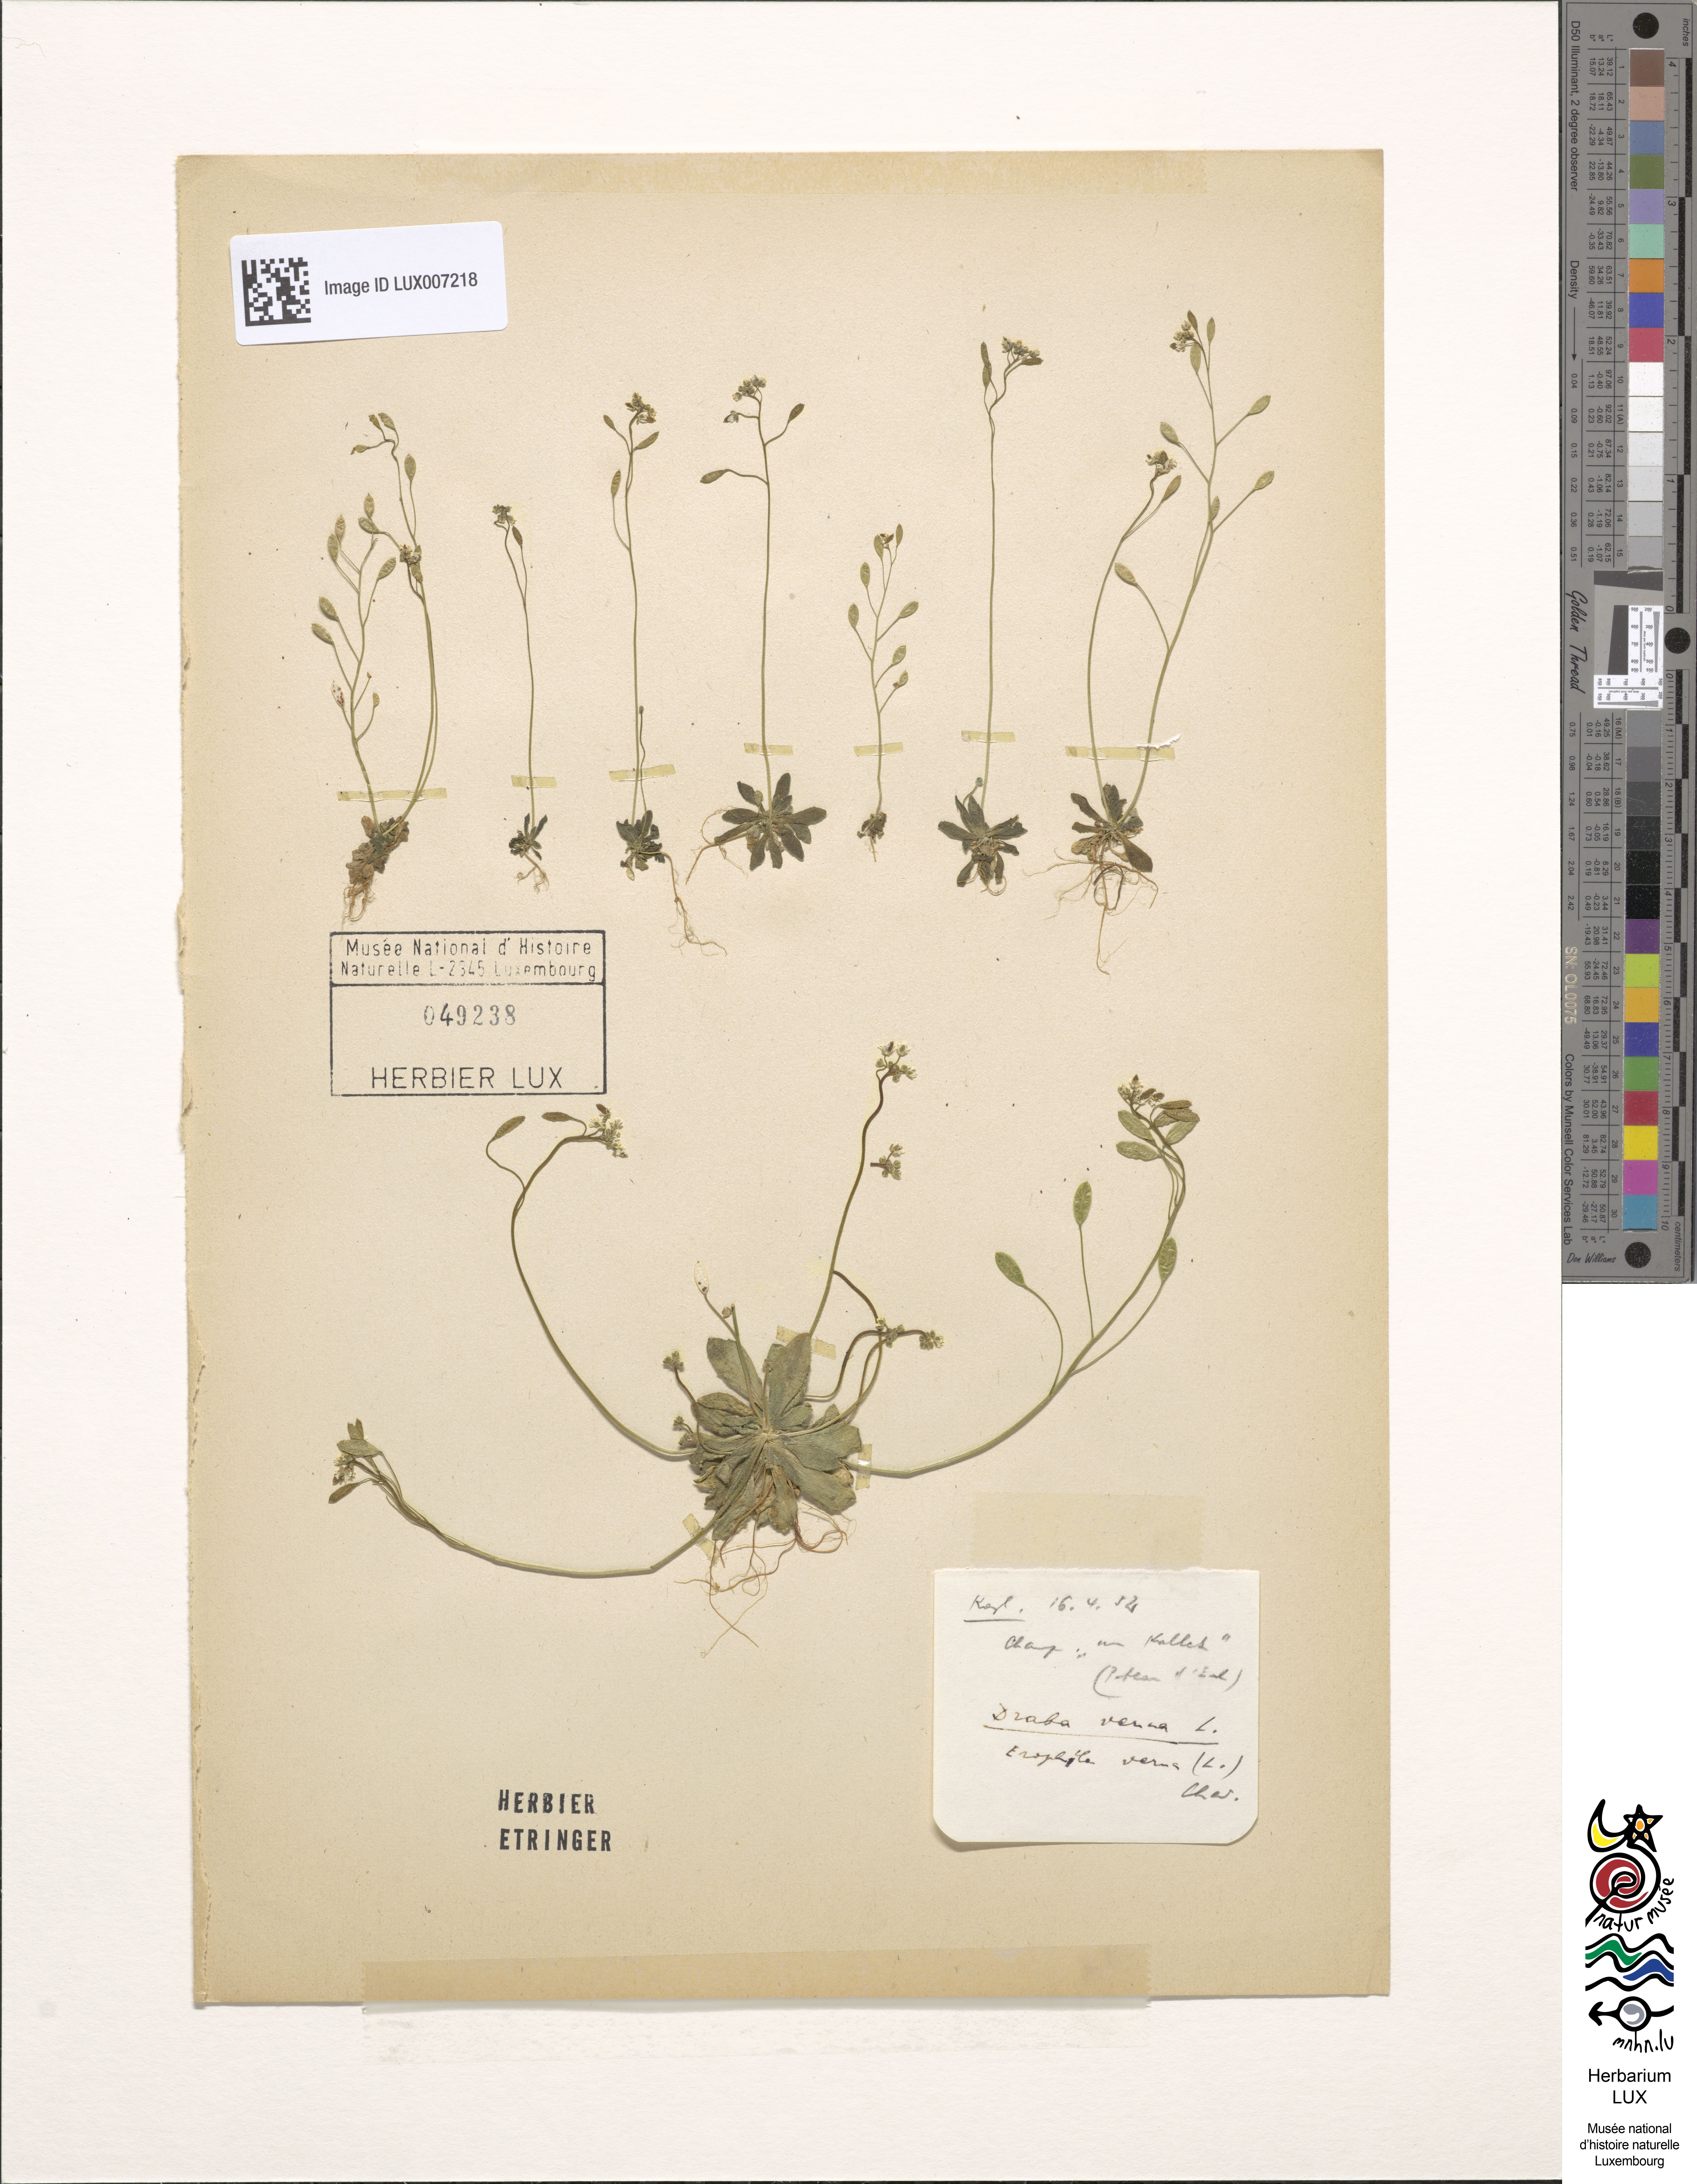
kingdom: Plantae
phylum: Tracheophyta
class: Magnoliopsida
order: Brassicales
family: Brassicaceae
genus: Draba
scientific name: Draba verna
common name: Spring draba
